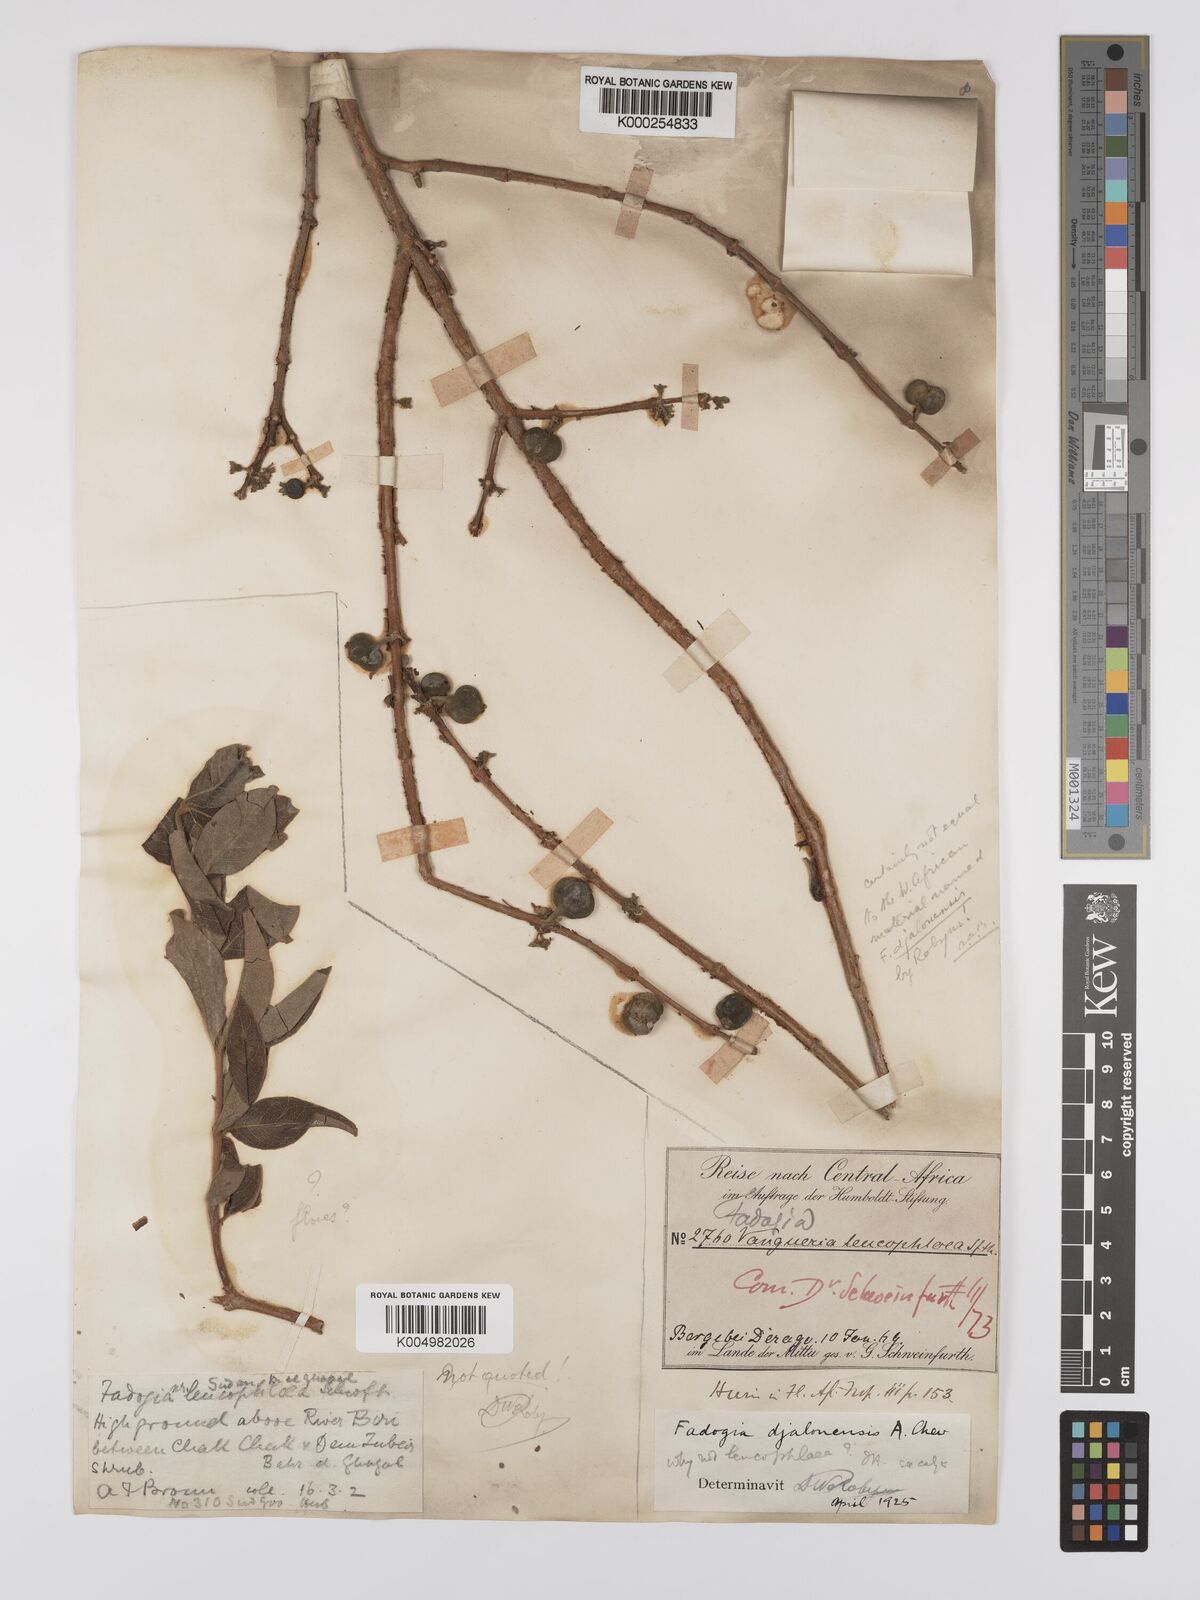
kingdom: Plantae
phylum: Tracheophyta
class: Magnoliopsida
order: Gentianales
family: Rubiaceae
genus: Fadogia
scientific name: Fadogia leucophloea
